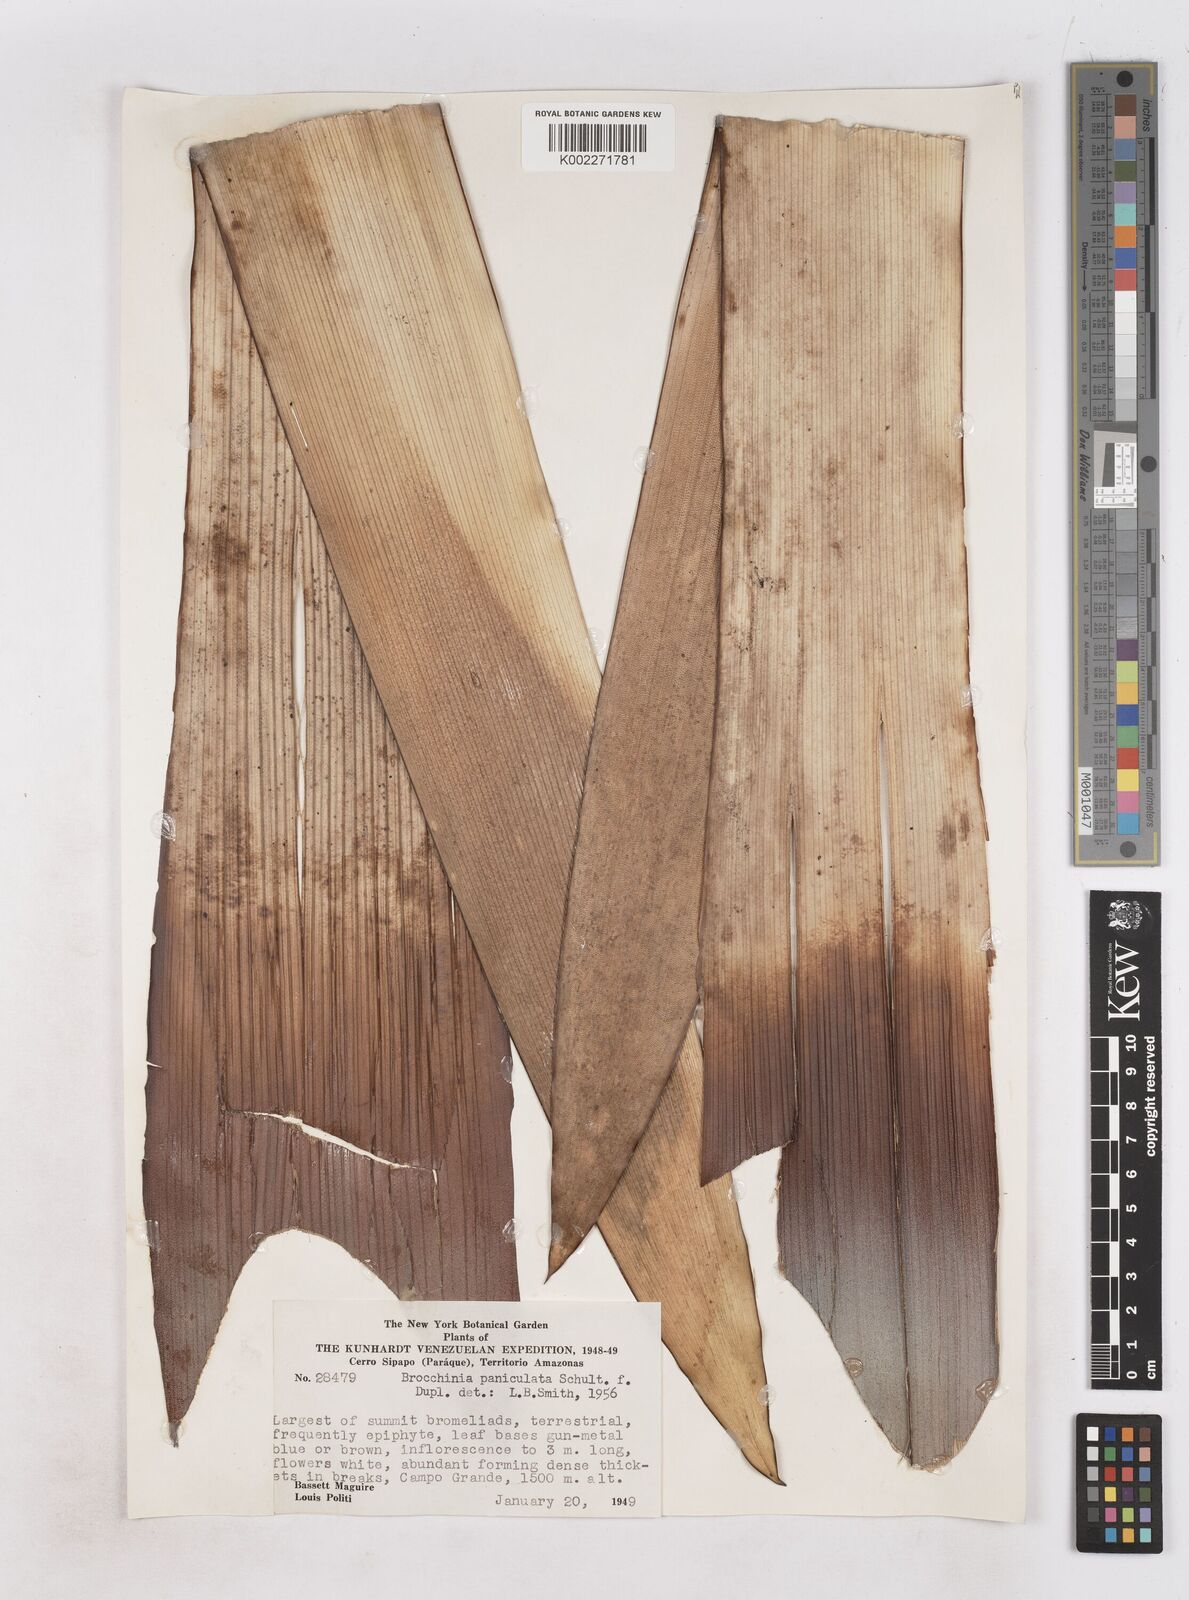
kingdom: Plantae
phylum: Tracheophyta
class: Liliopsida
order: Poales
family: Bromeliaceae
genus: Brocchinia
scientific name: Brocchinia paniculata
